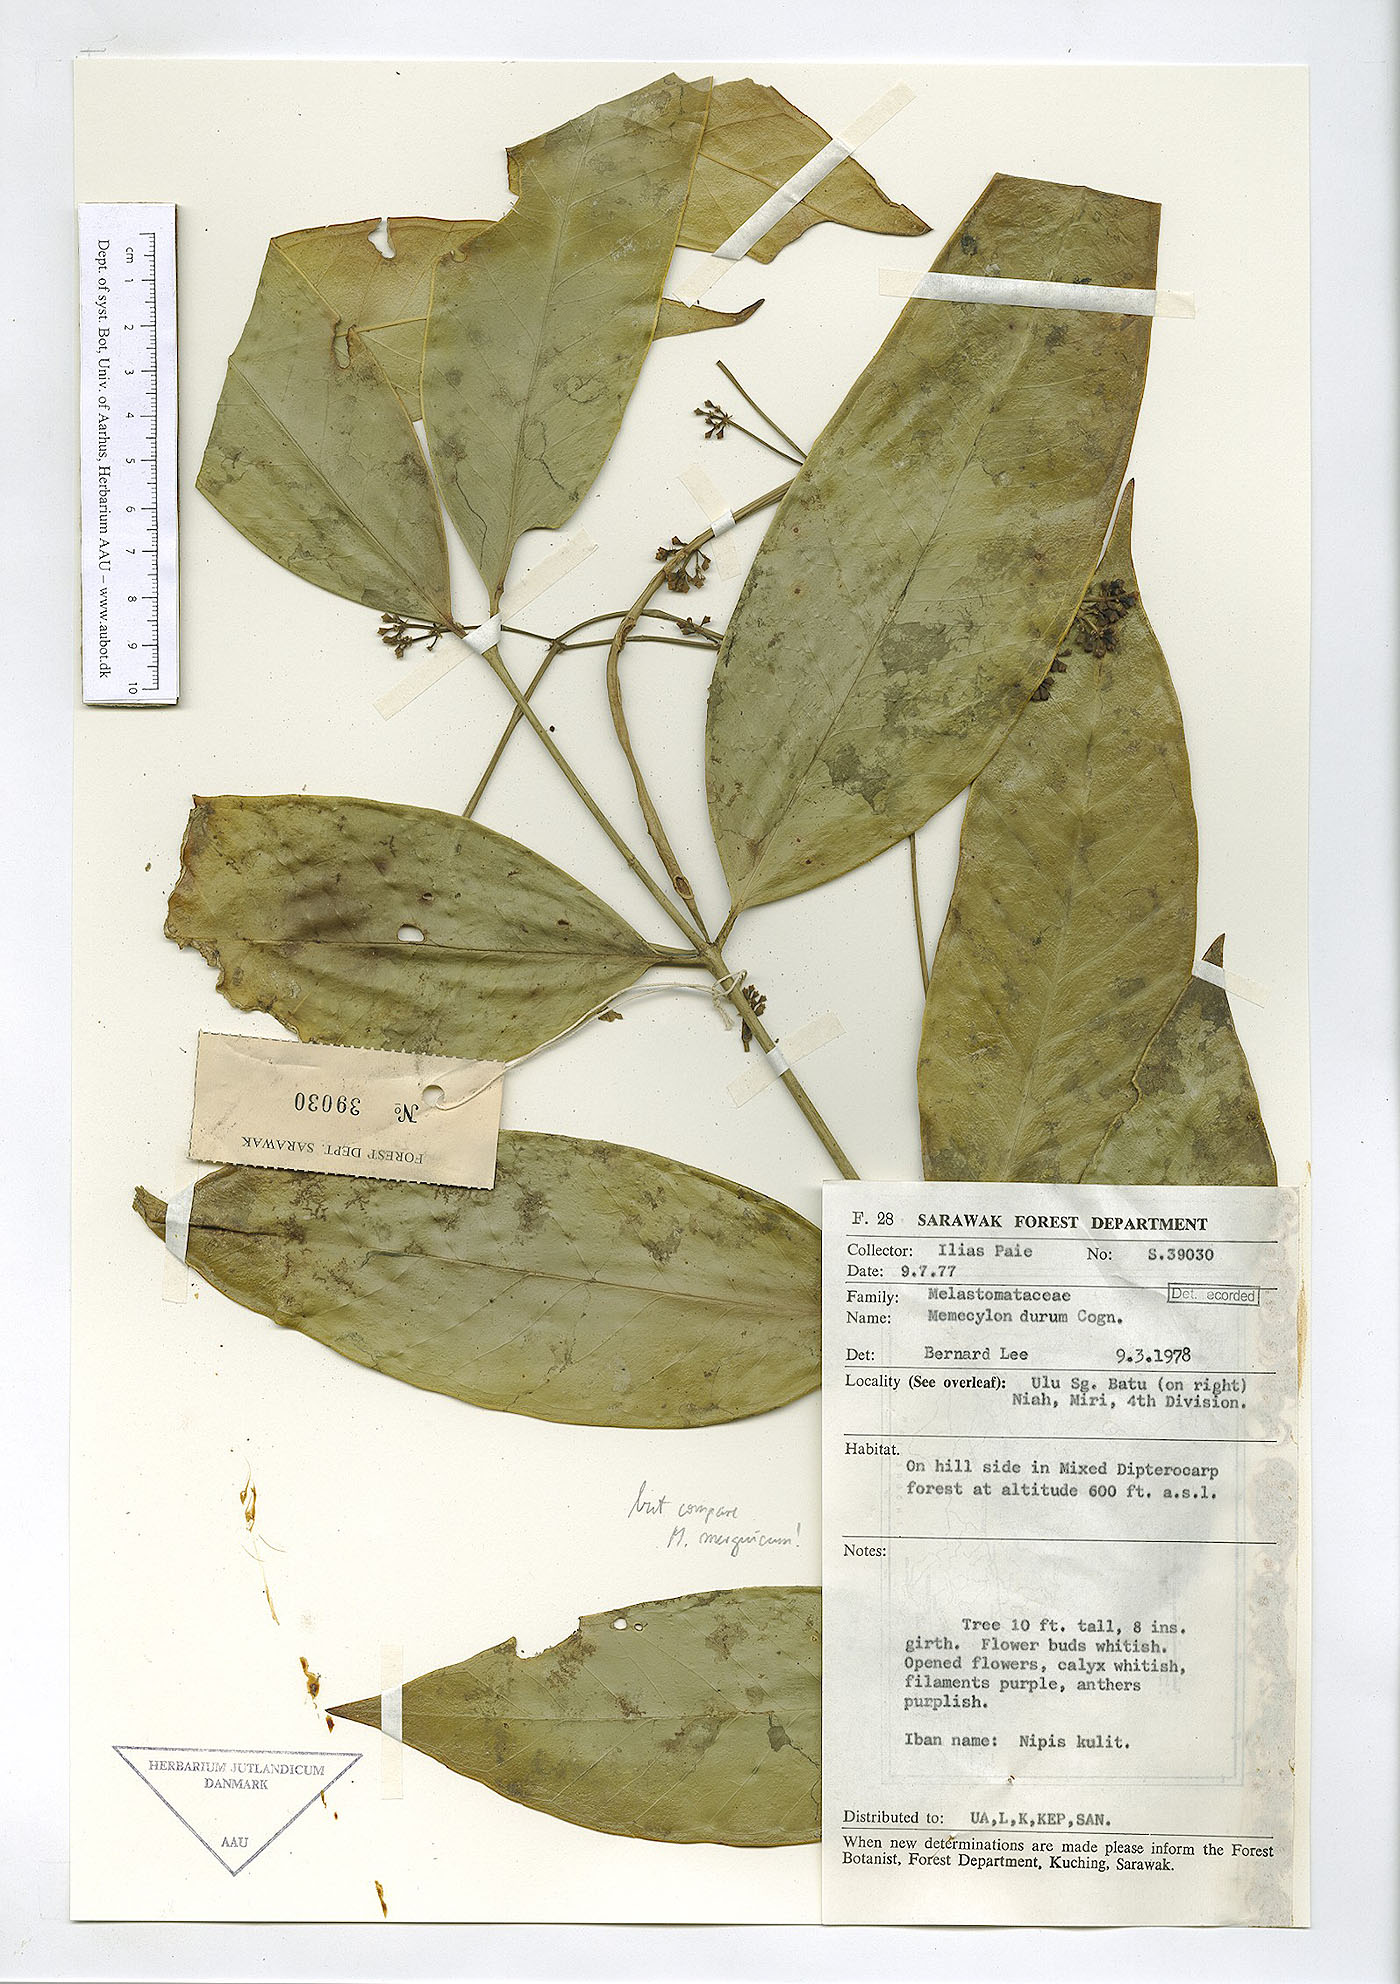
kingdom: Plantae
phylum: Tracheophyta
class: Magnoliopsida
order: Myrtales
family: Melastomataceae
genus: Memecylon
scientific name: Memecylon durum
